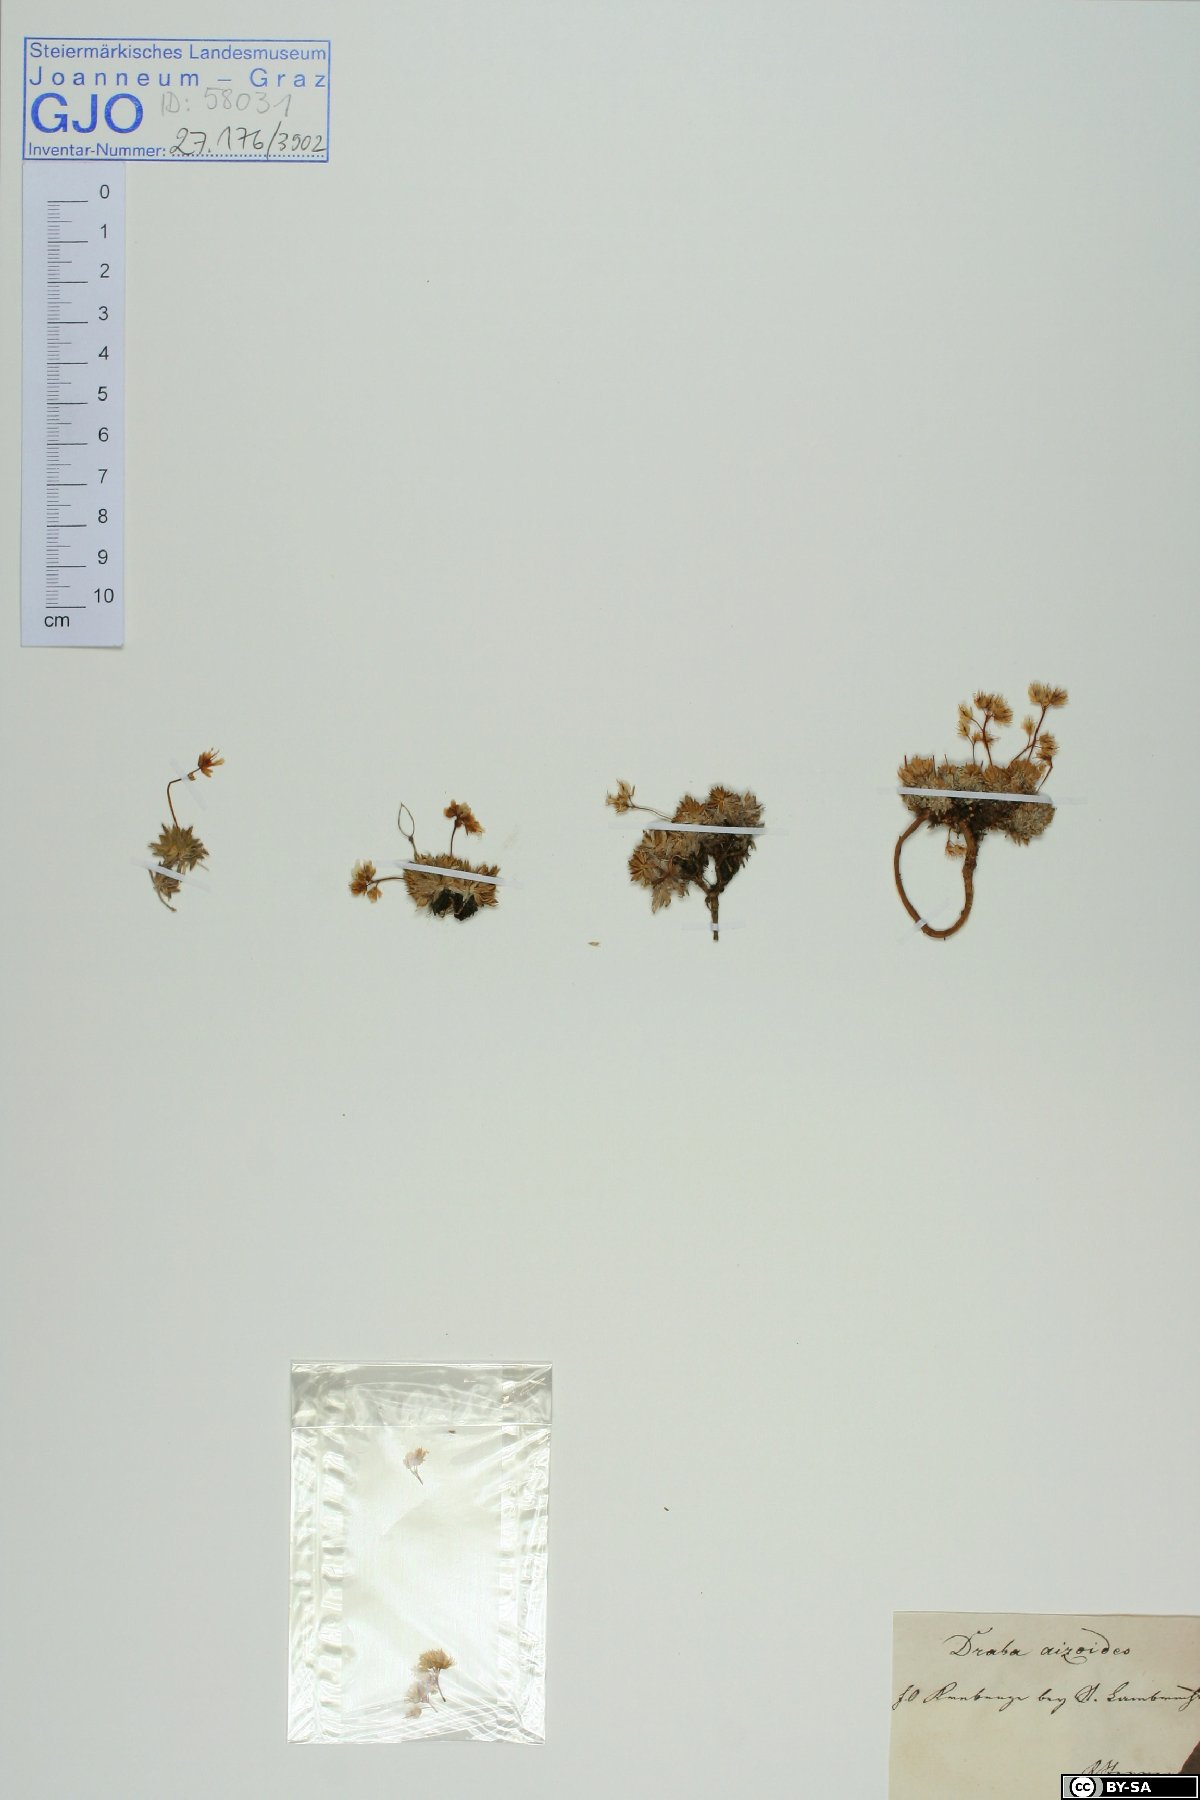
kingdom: Plantae
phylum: Tracheophyta
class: Magnoliopsida
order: Brassicales
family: Brassicaceae
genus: Draba
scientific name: Draba aizoides
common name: Yellow whitlowgrass
